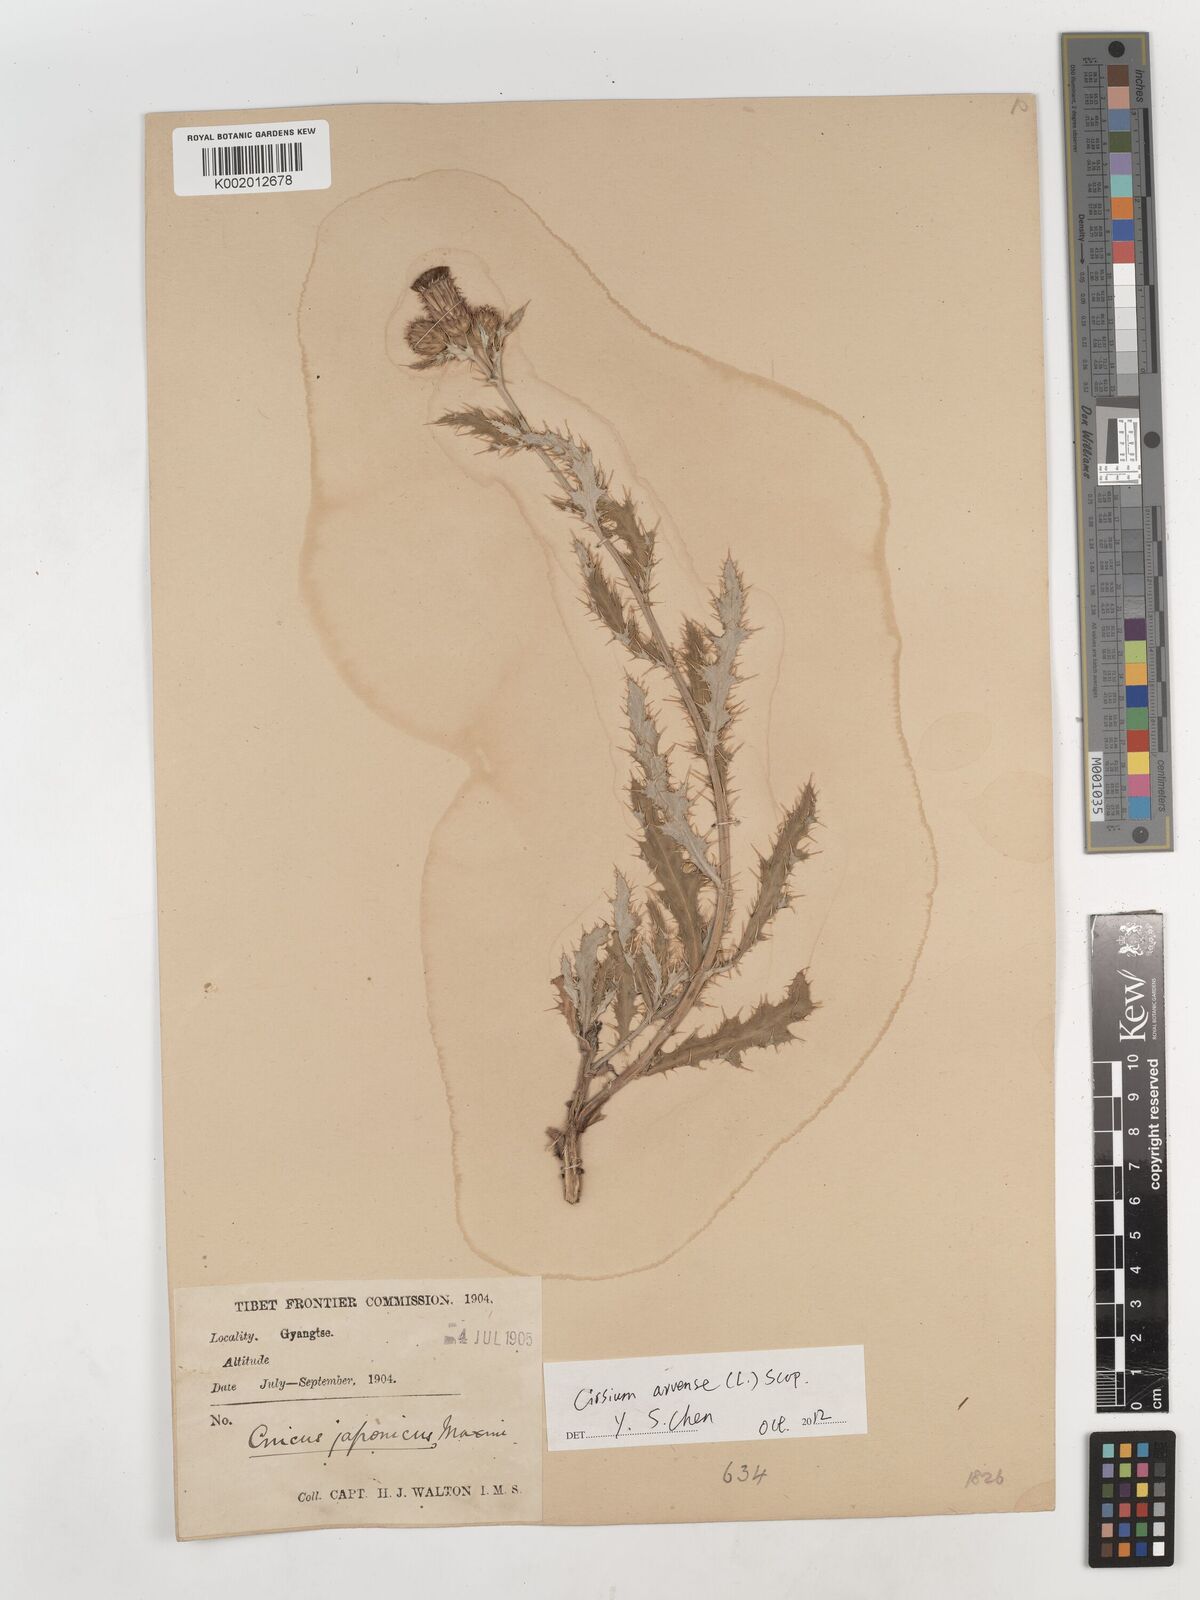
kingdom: Plantae
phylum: Tracheophyta
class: Magnoliopsida
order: Asterales
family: Asteraceae
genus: Cirsium
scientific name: Cirsium
